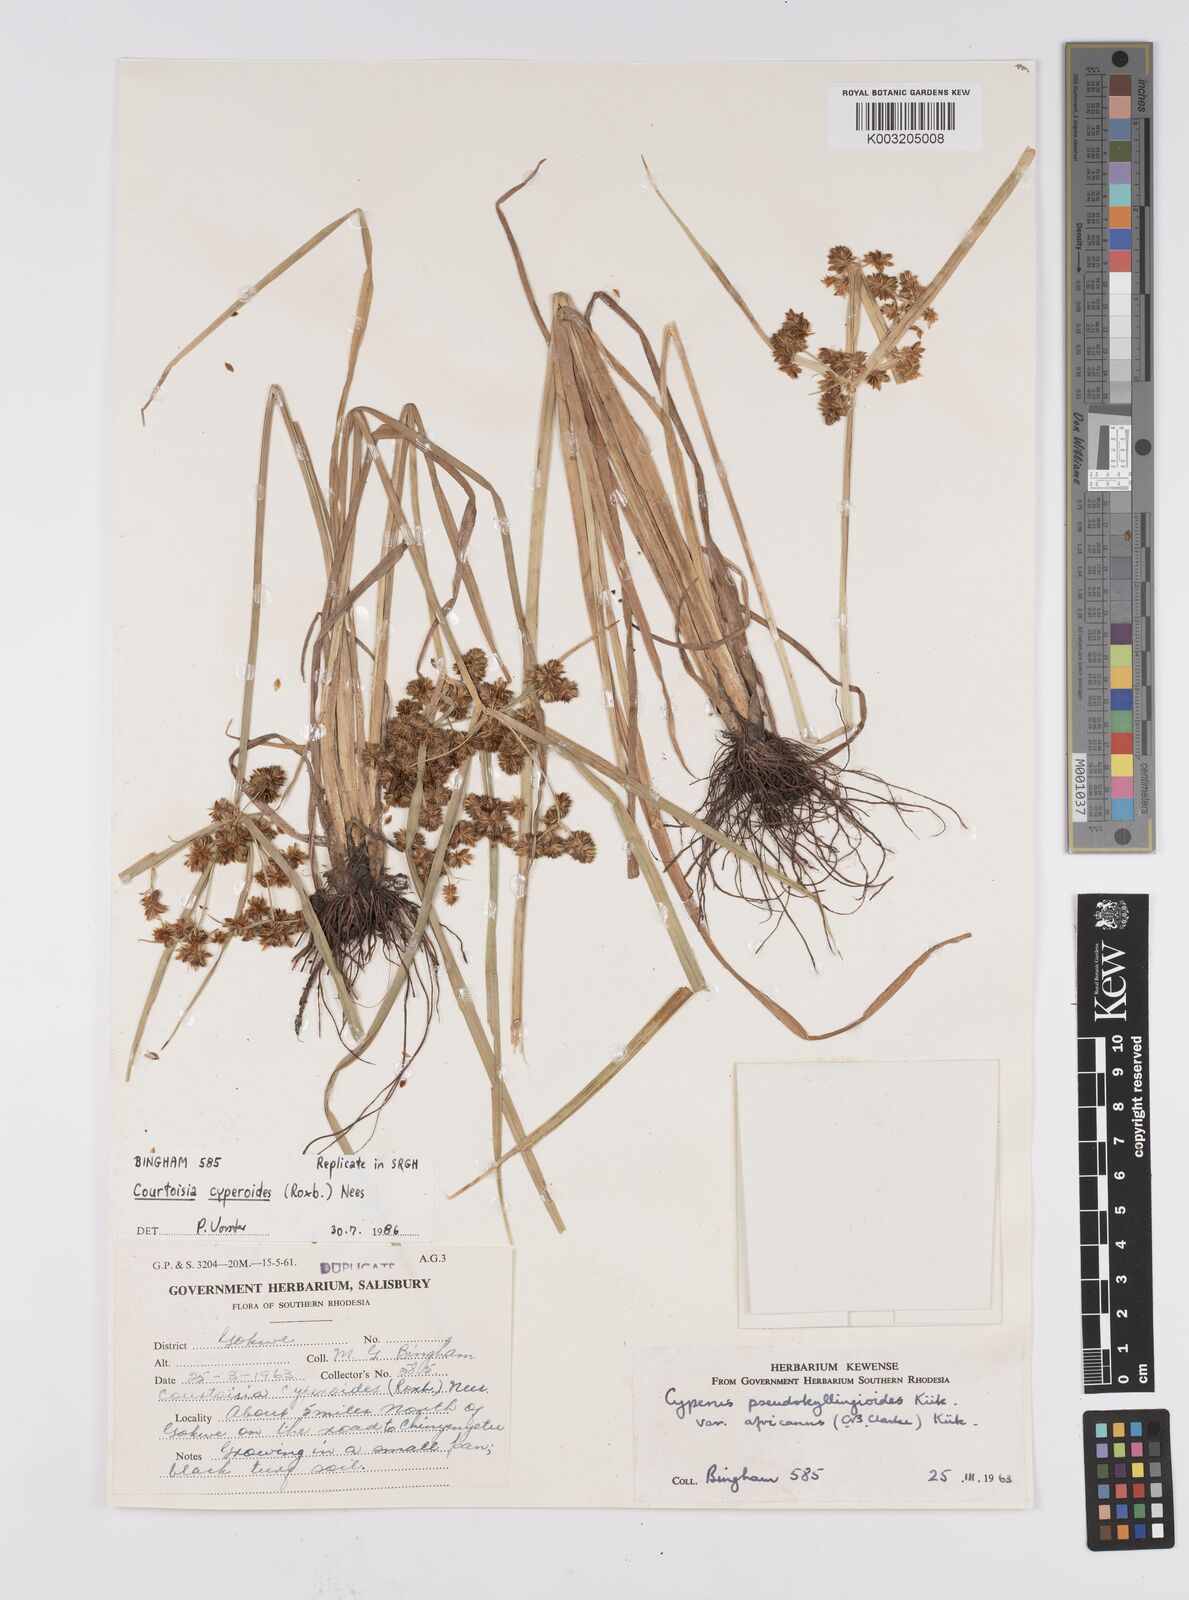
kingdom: Plantae
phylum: Tracheophyta
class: Liliopsida
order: Poales
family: Cyperaceae
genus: Cyperus
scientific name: Cyperus cyperoides
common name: Pacific island flat sedge
